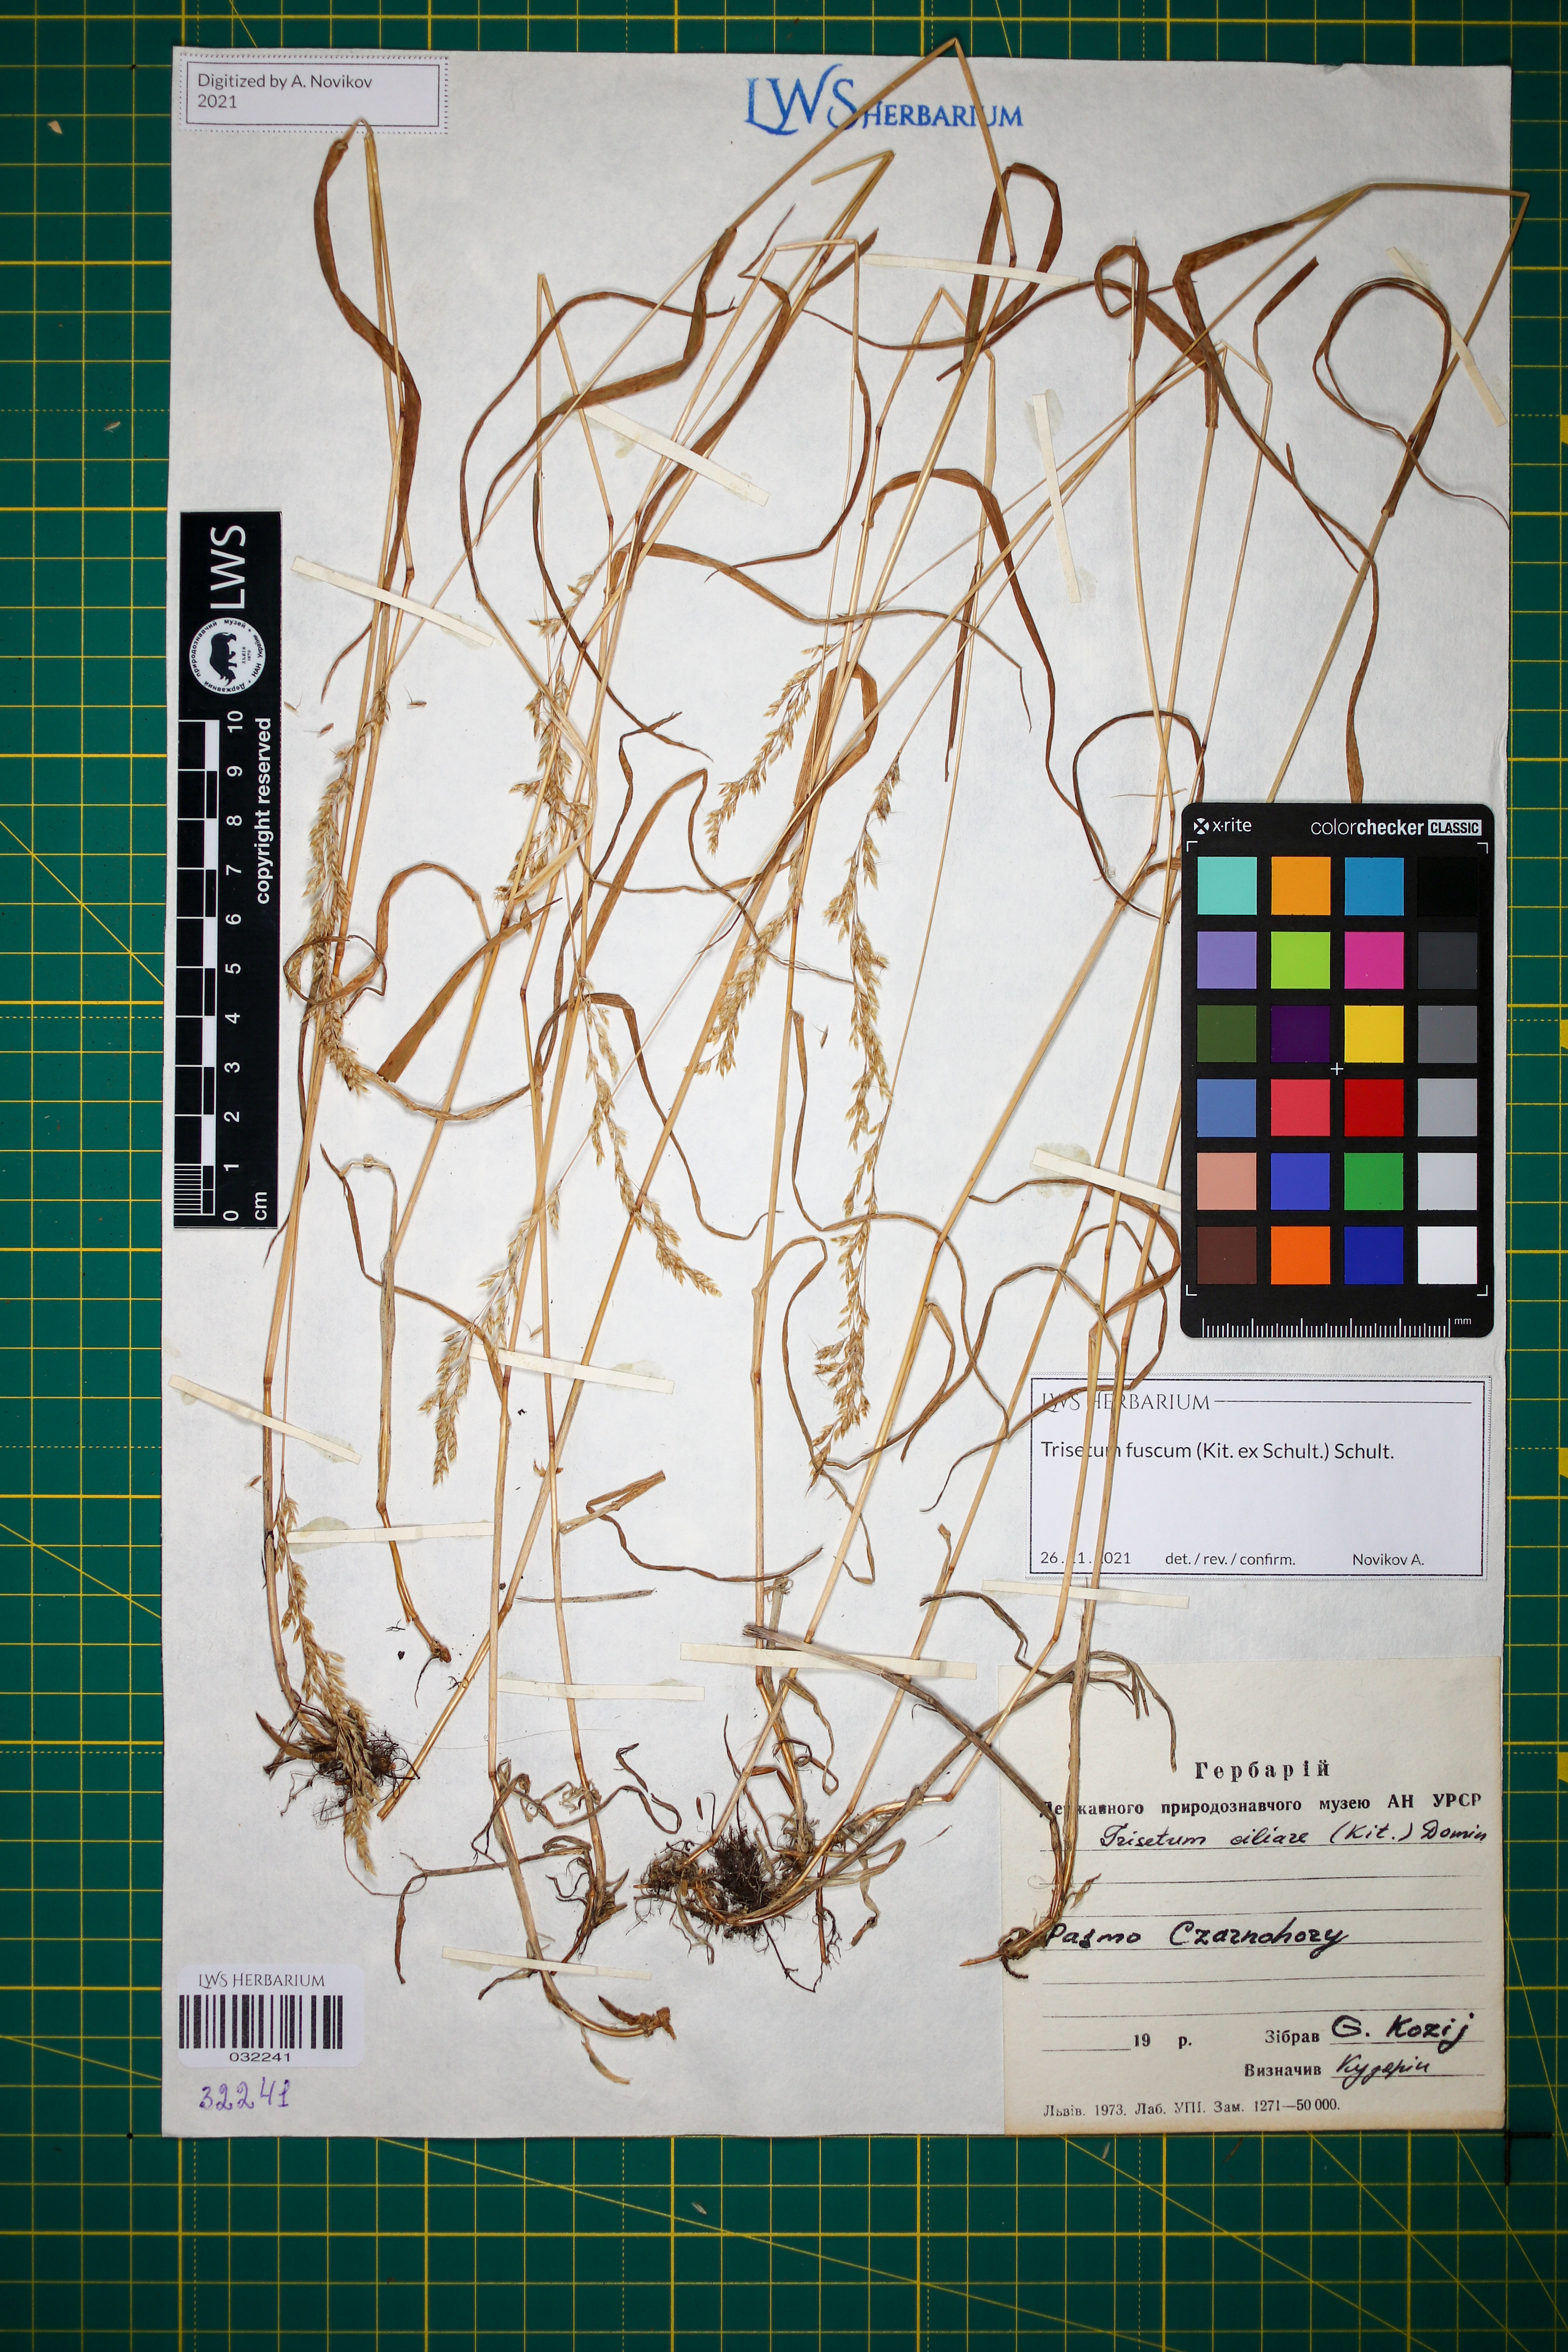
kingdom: Plantae
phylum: Tracheophyta
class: Liliopsida
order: Poales
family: Poaceae
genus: Trisetum
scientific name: Trisetum fuscum
